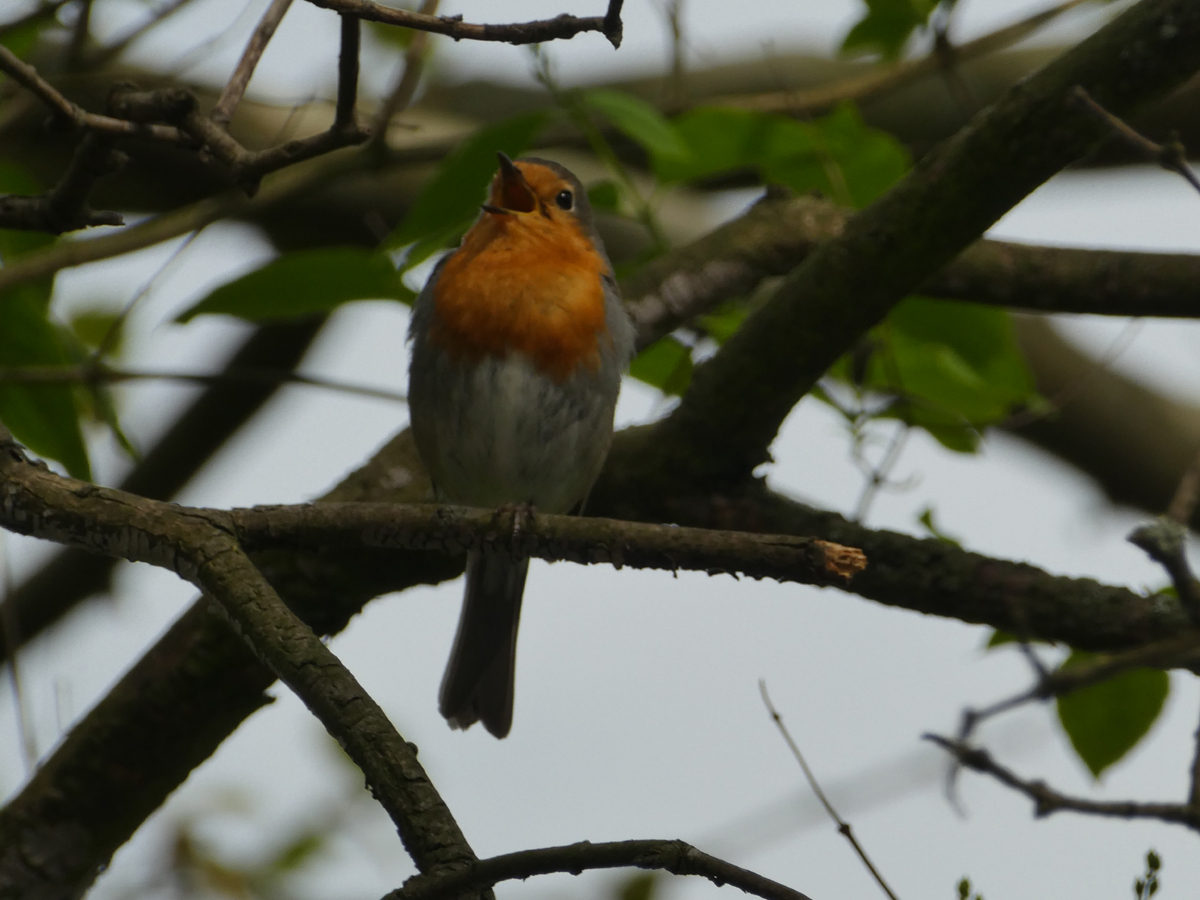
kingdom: Animalia
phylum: Chordata
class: Aves
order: Passeriformes
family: Muscicapidae
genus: Erithacus
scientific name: Erithacus rubecula
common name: European robin
